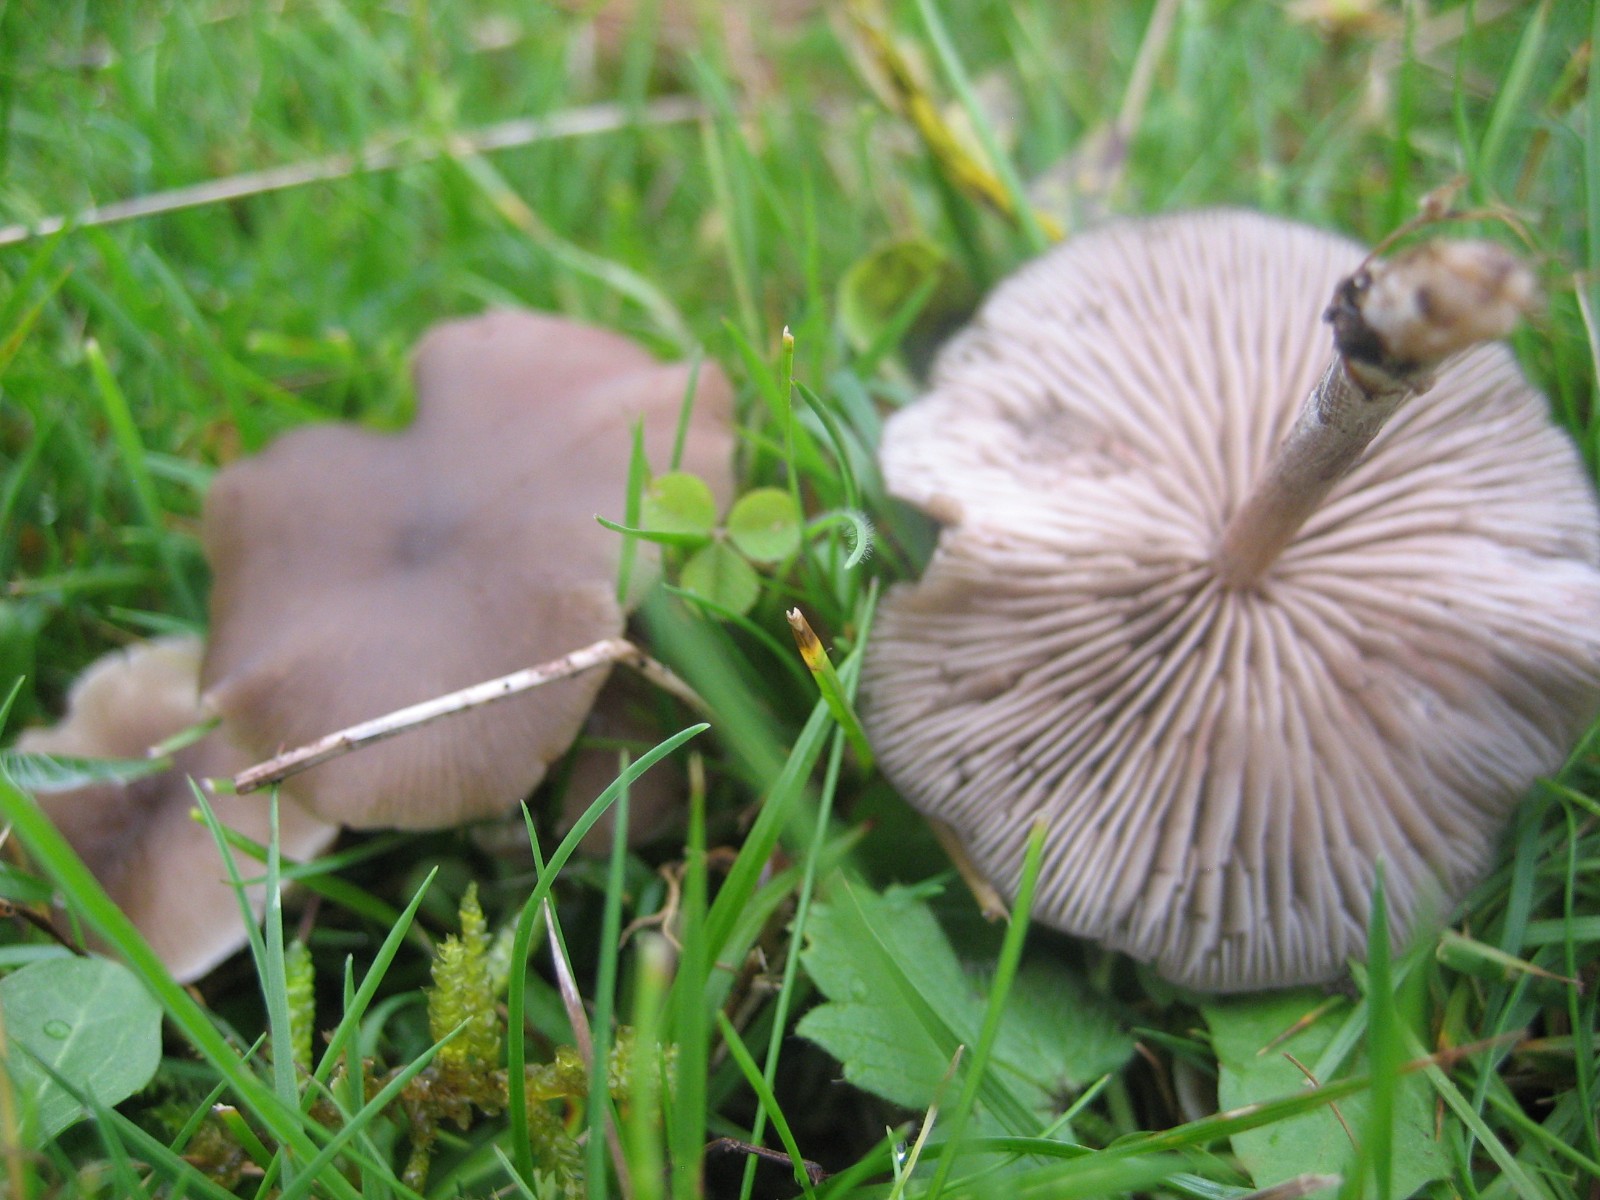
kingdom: Fungi
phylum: Basidiomycota
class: Agaricomycetes
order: Agaricales
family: Entolomataceae
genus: Entoloma
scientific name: Entoloma
